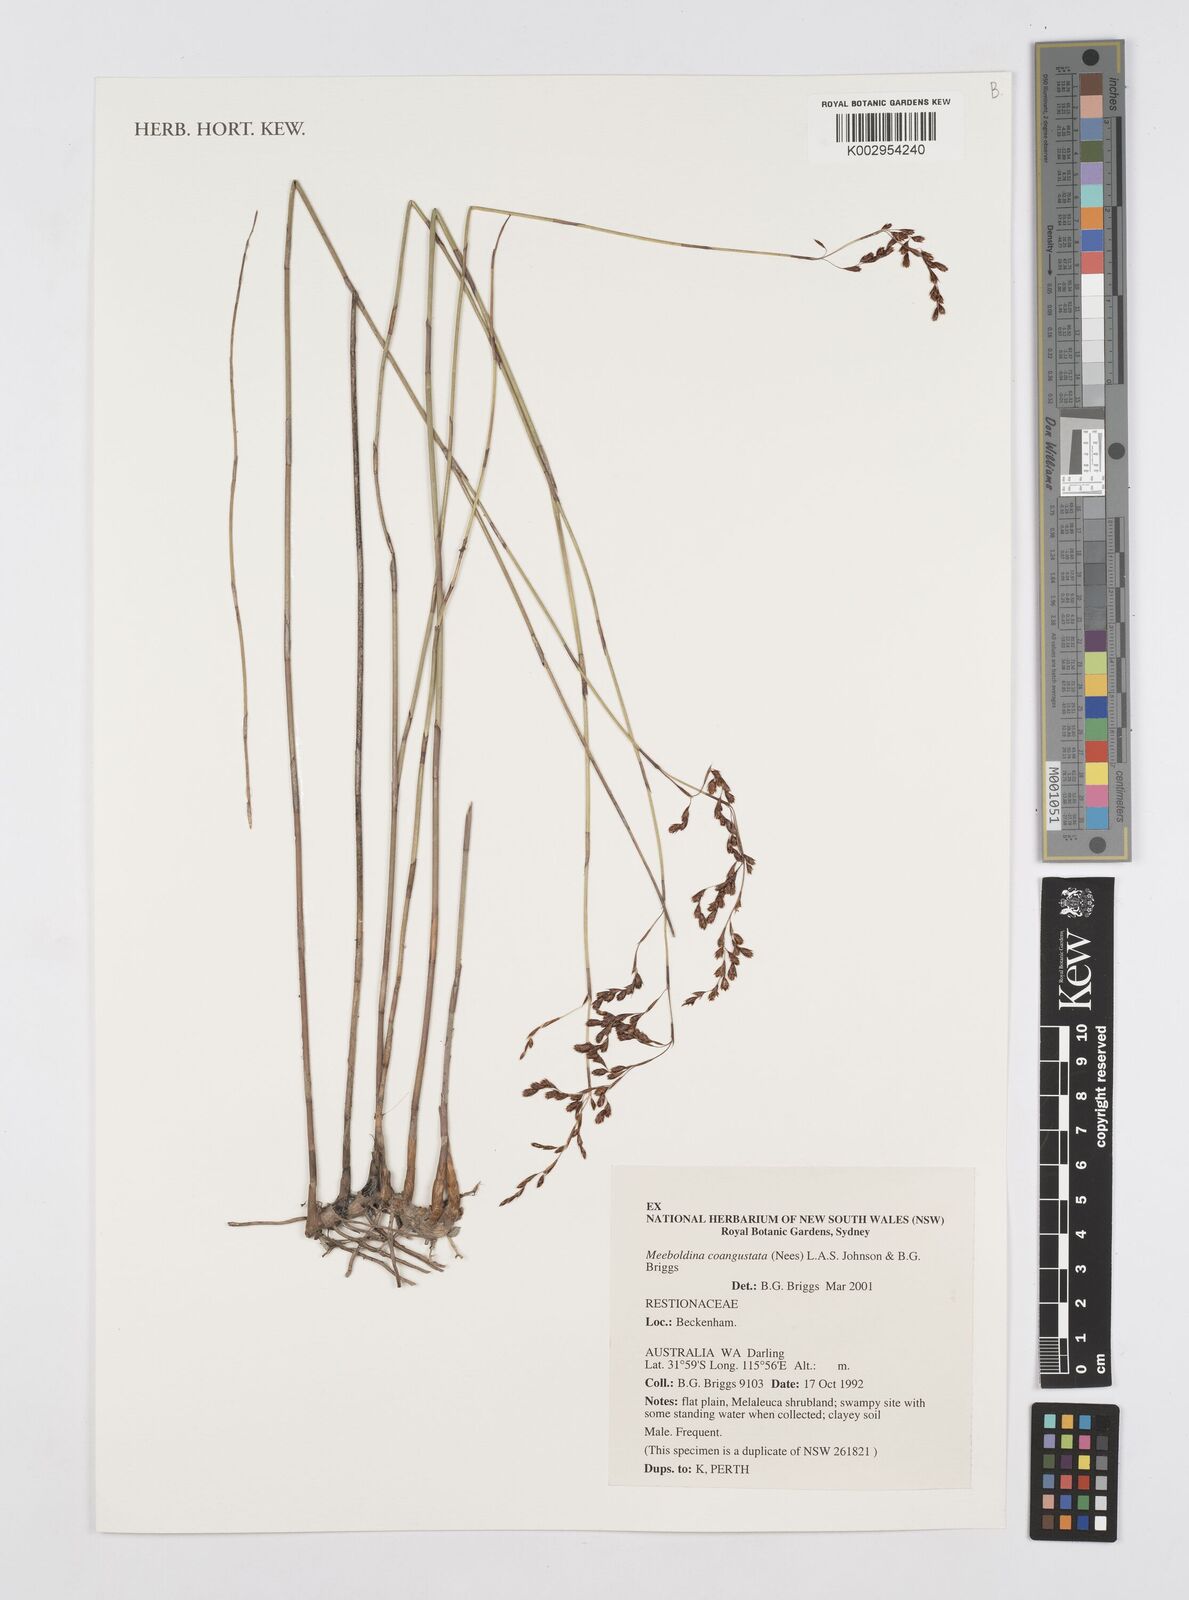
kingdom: Plantae
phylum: Tracheophyta
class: Liliopsida
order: Poales
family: Restionaceae
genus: Leptocarpus
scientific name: Leptocarpus coangustatus
